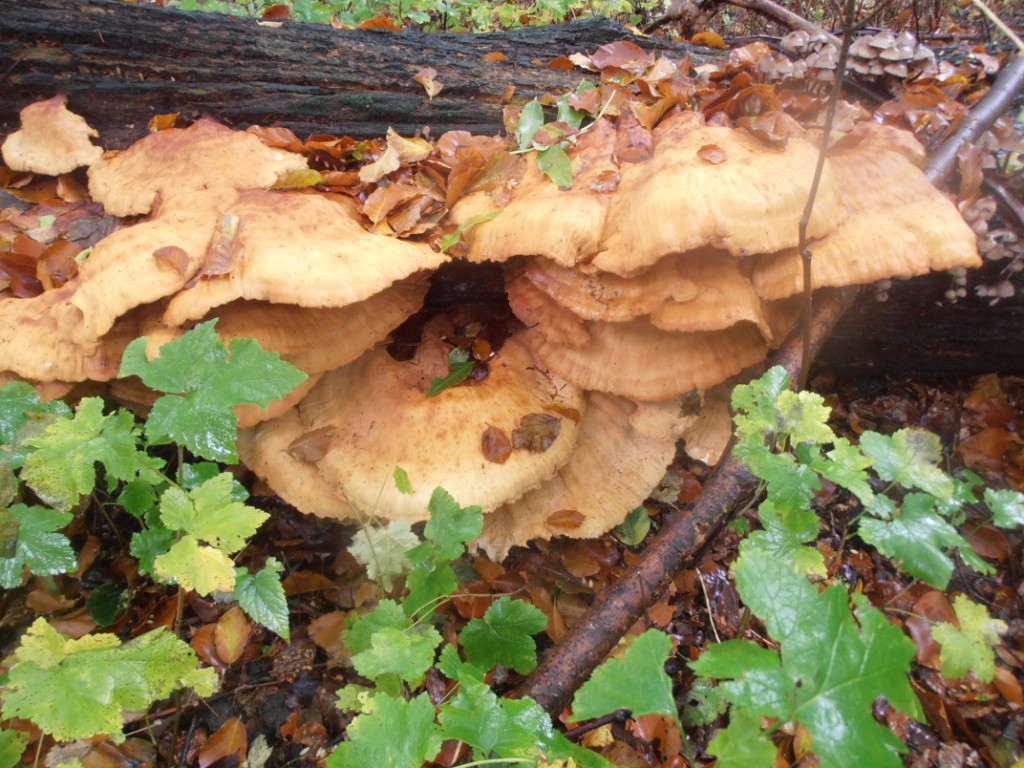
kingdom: Fungi
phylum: Basidiomycota
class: Agaricomycetes
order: Polyporales
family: Laetiporaceae
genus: Laetiporus
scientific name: Laetiporus sulphureus
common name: svovlporesvamp
